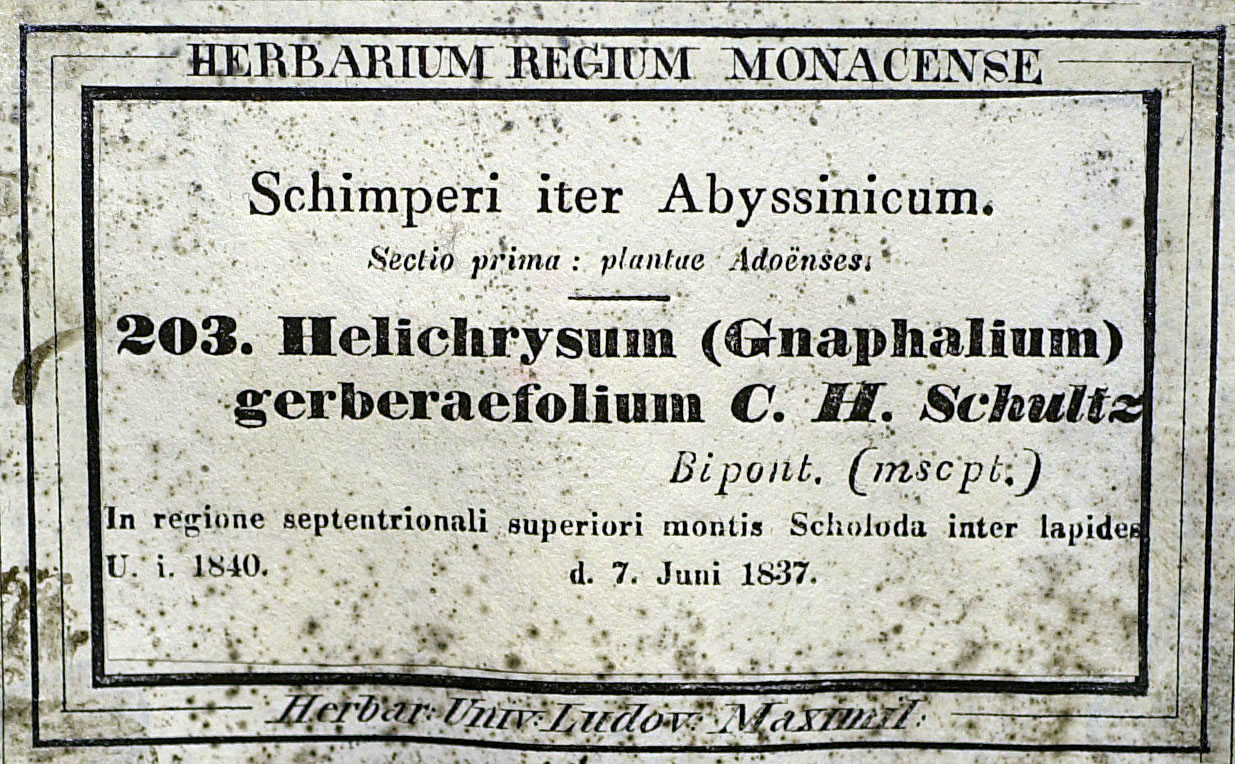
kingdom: Plantae
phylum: Tracheophyta
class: Magnoliopsida
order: Asterales
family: Asteraceae
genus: Helichrysum
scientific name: Helichrysum nudifolium
